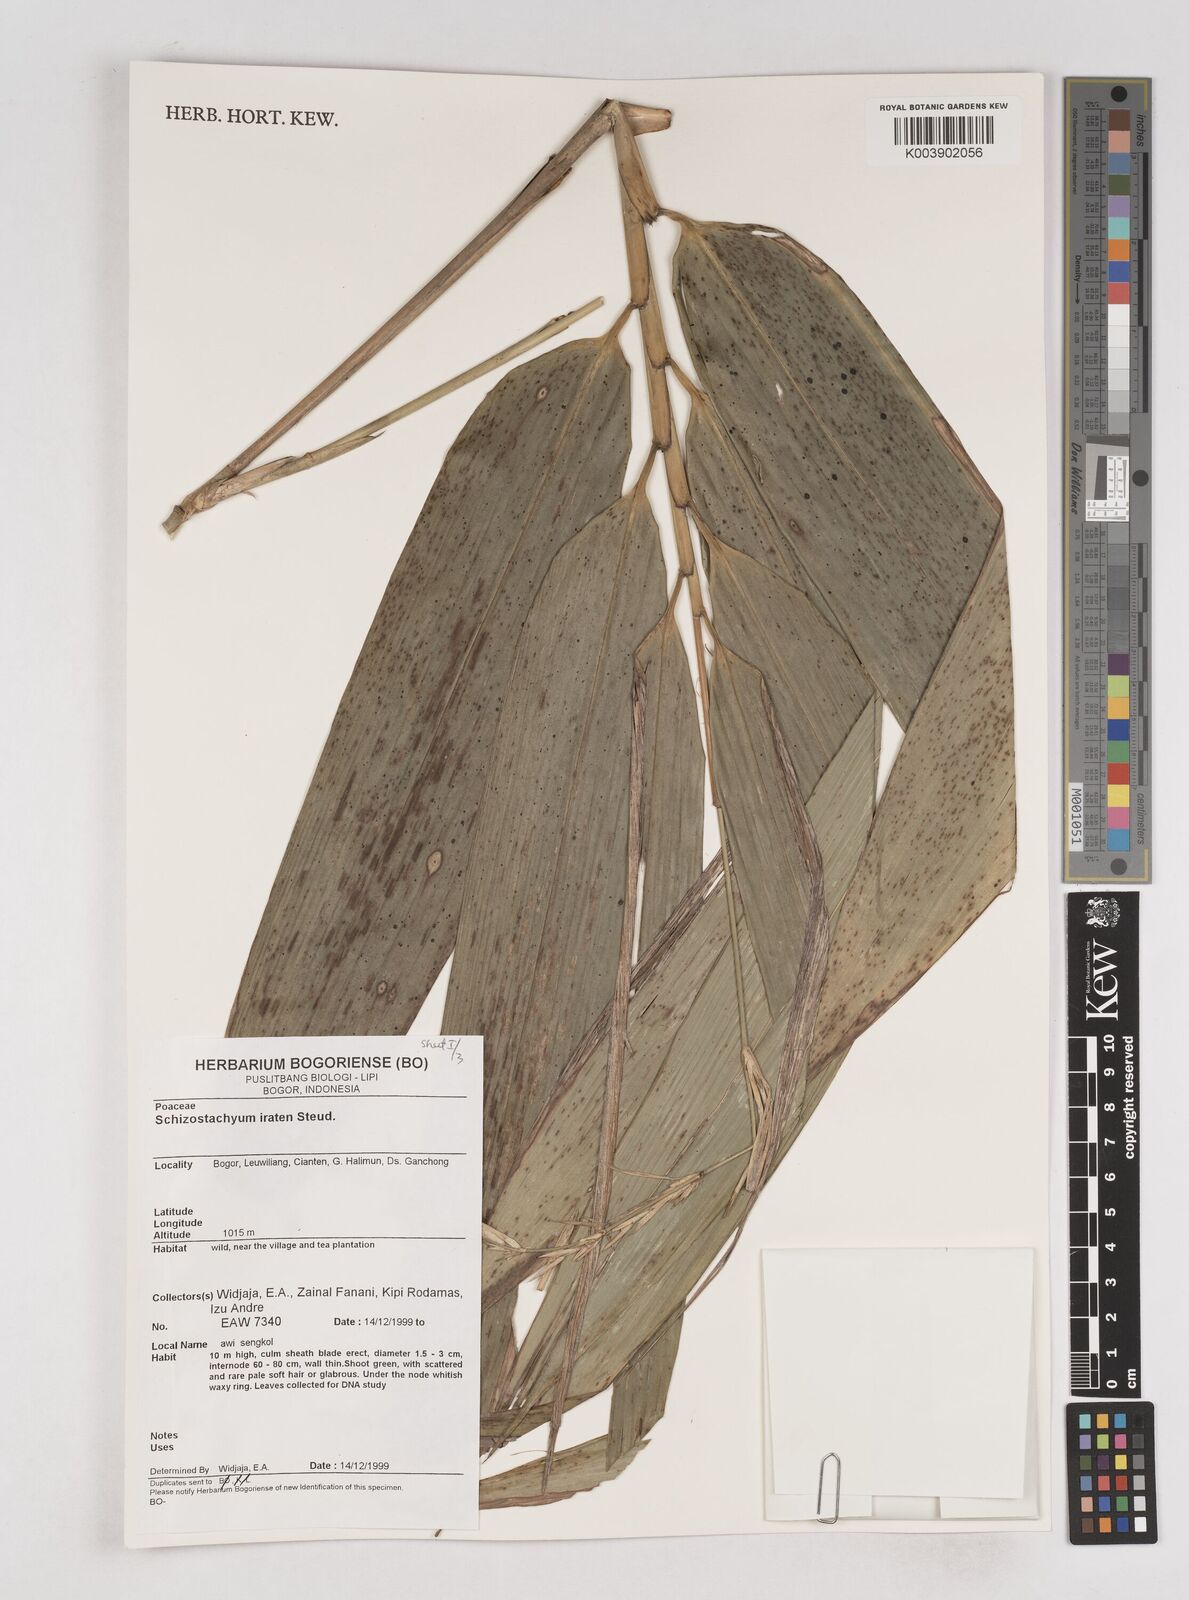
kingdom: Plantae
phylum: Tracheophyta
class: Liliopsida
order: Poales
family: Poaceae
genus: Schizostachyum
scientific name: Schizostachyum iraten
